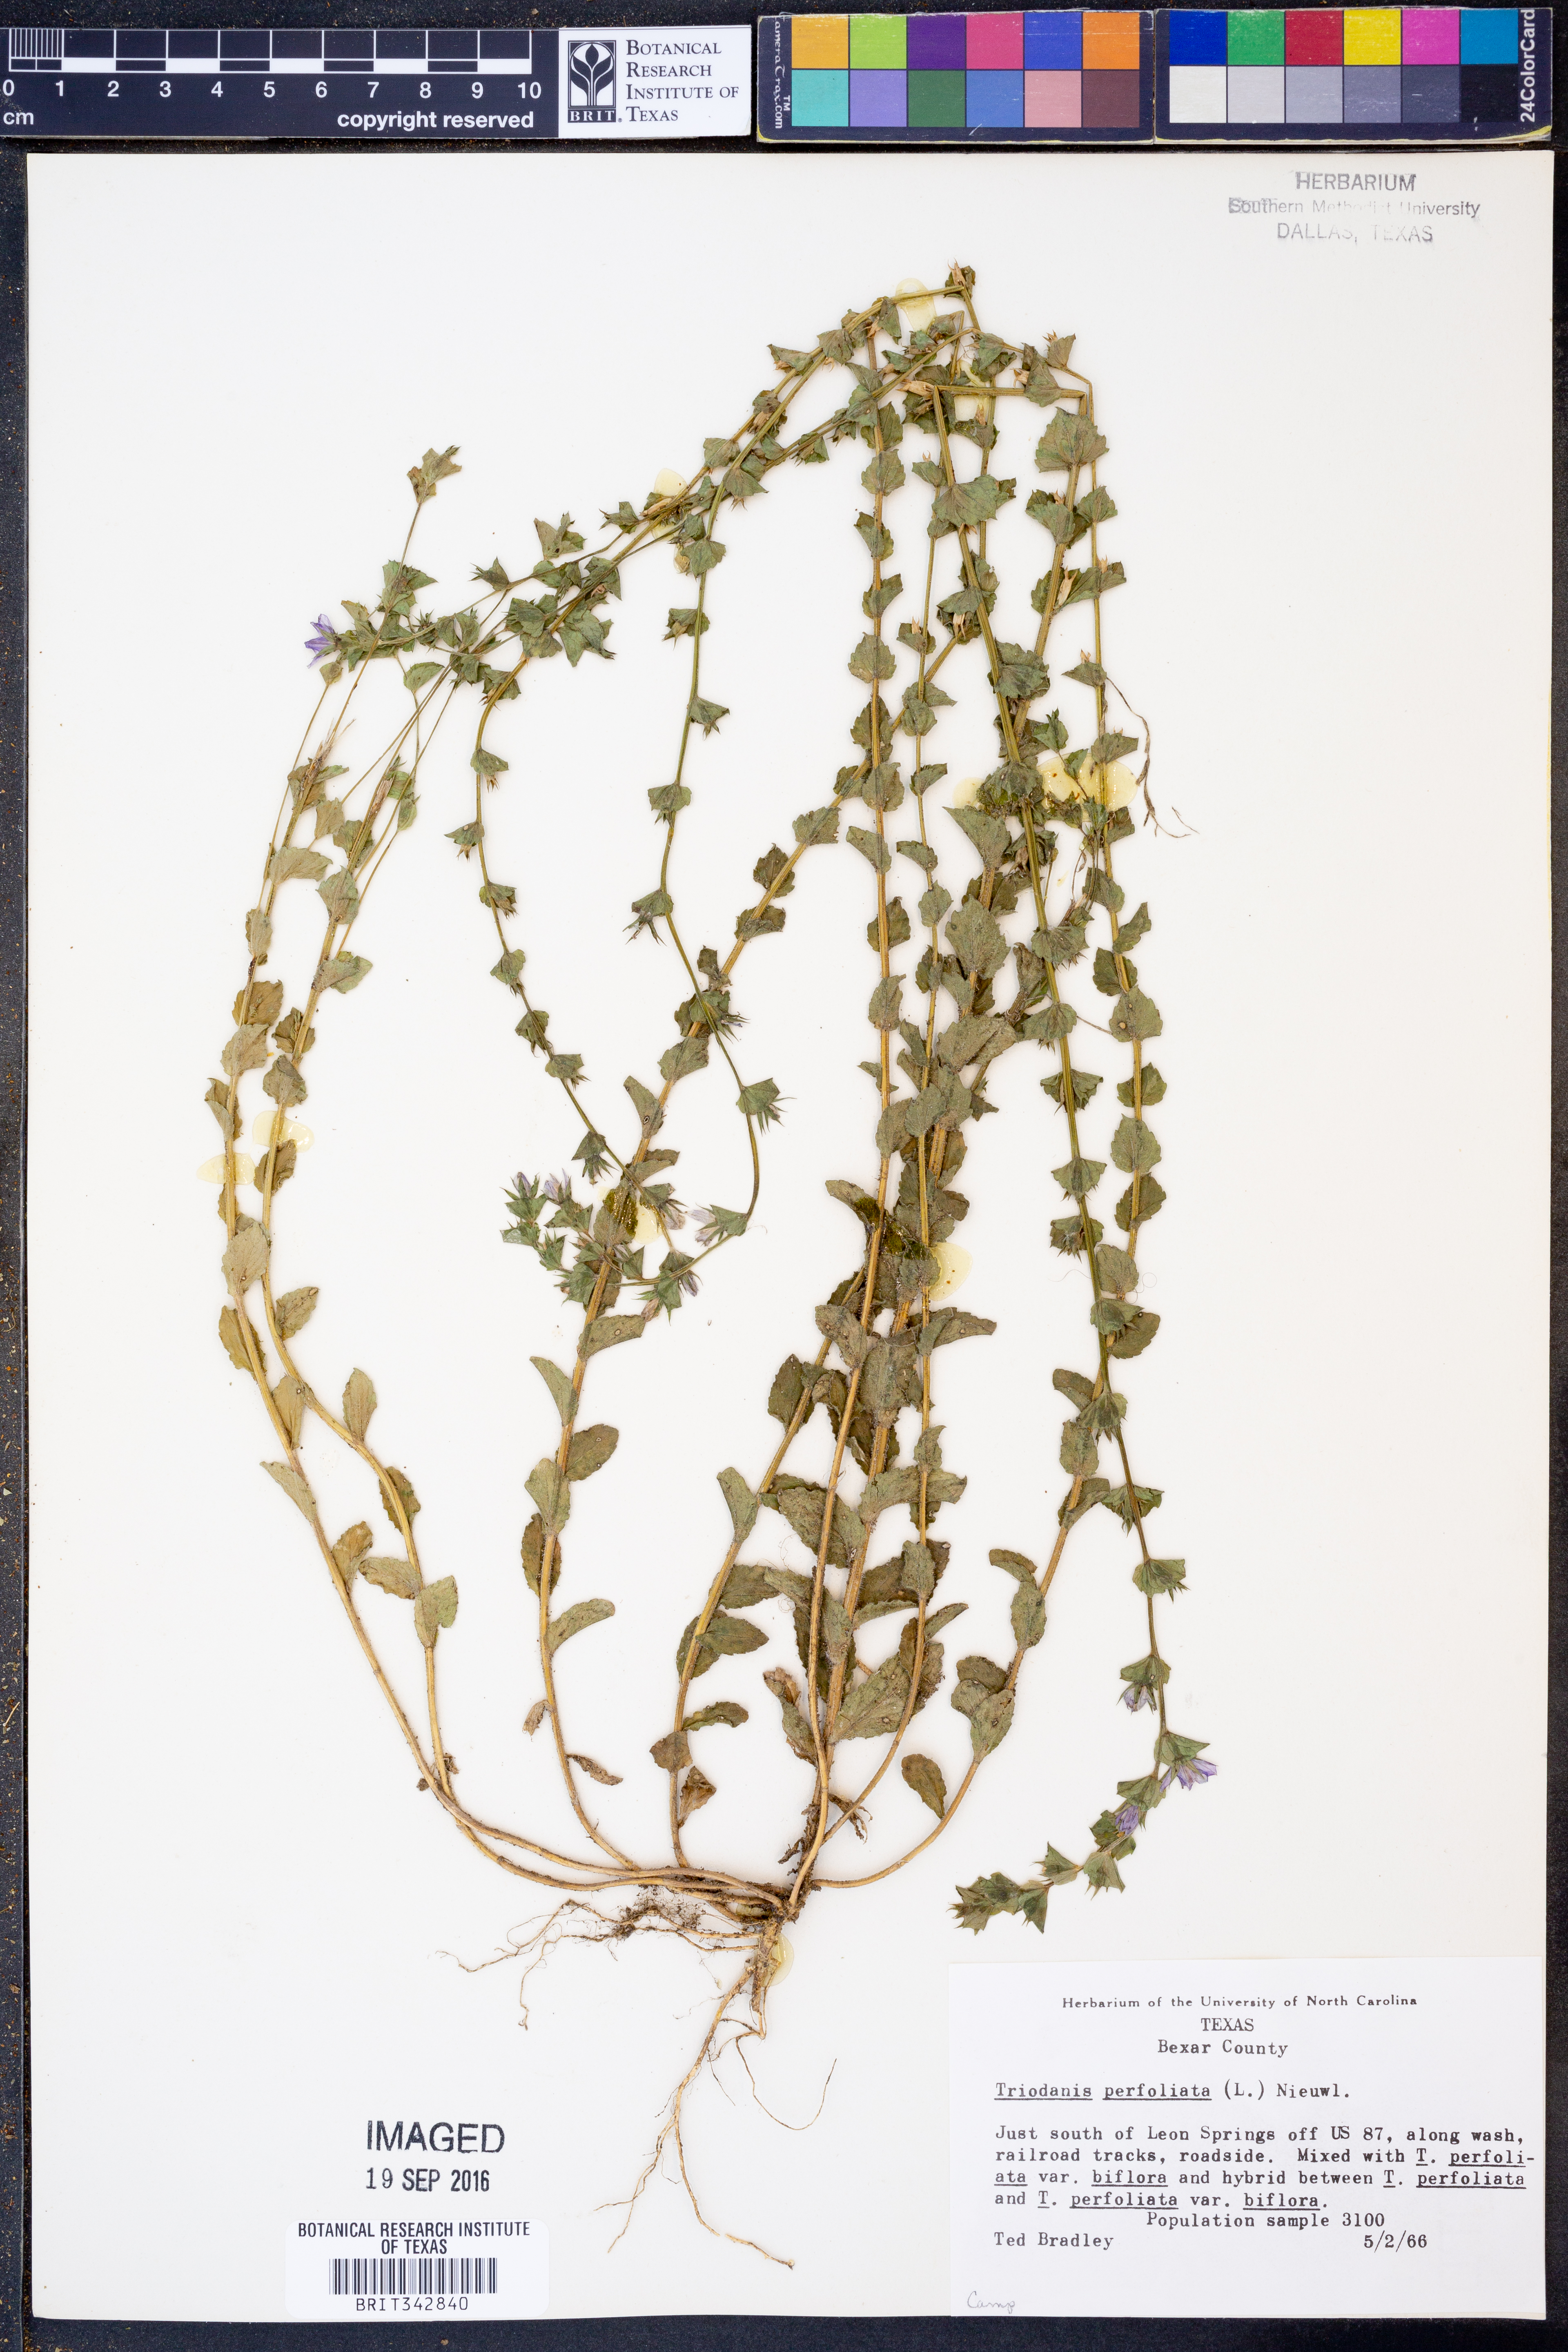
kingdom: Plantae
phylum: Tracheophyta
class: Magnoliopsida
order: Asterales
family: Campanulaceae
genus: Triodanis
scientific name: Triodanis perfoliata
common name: Clasping venus' looking-glass
